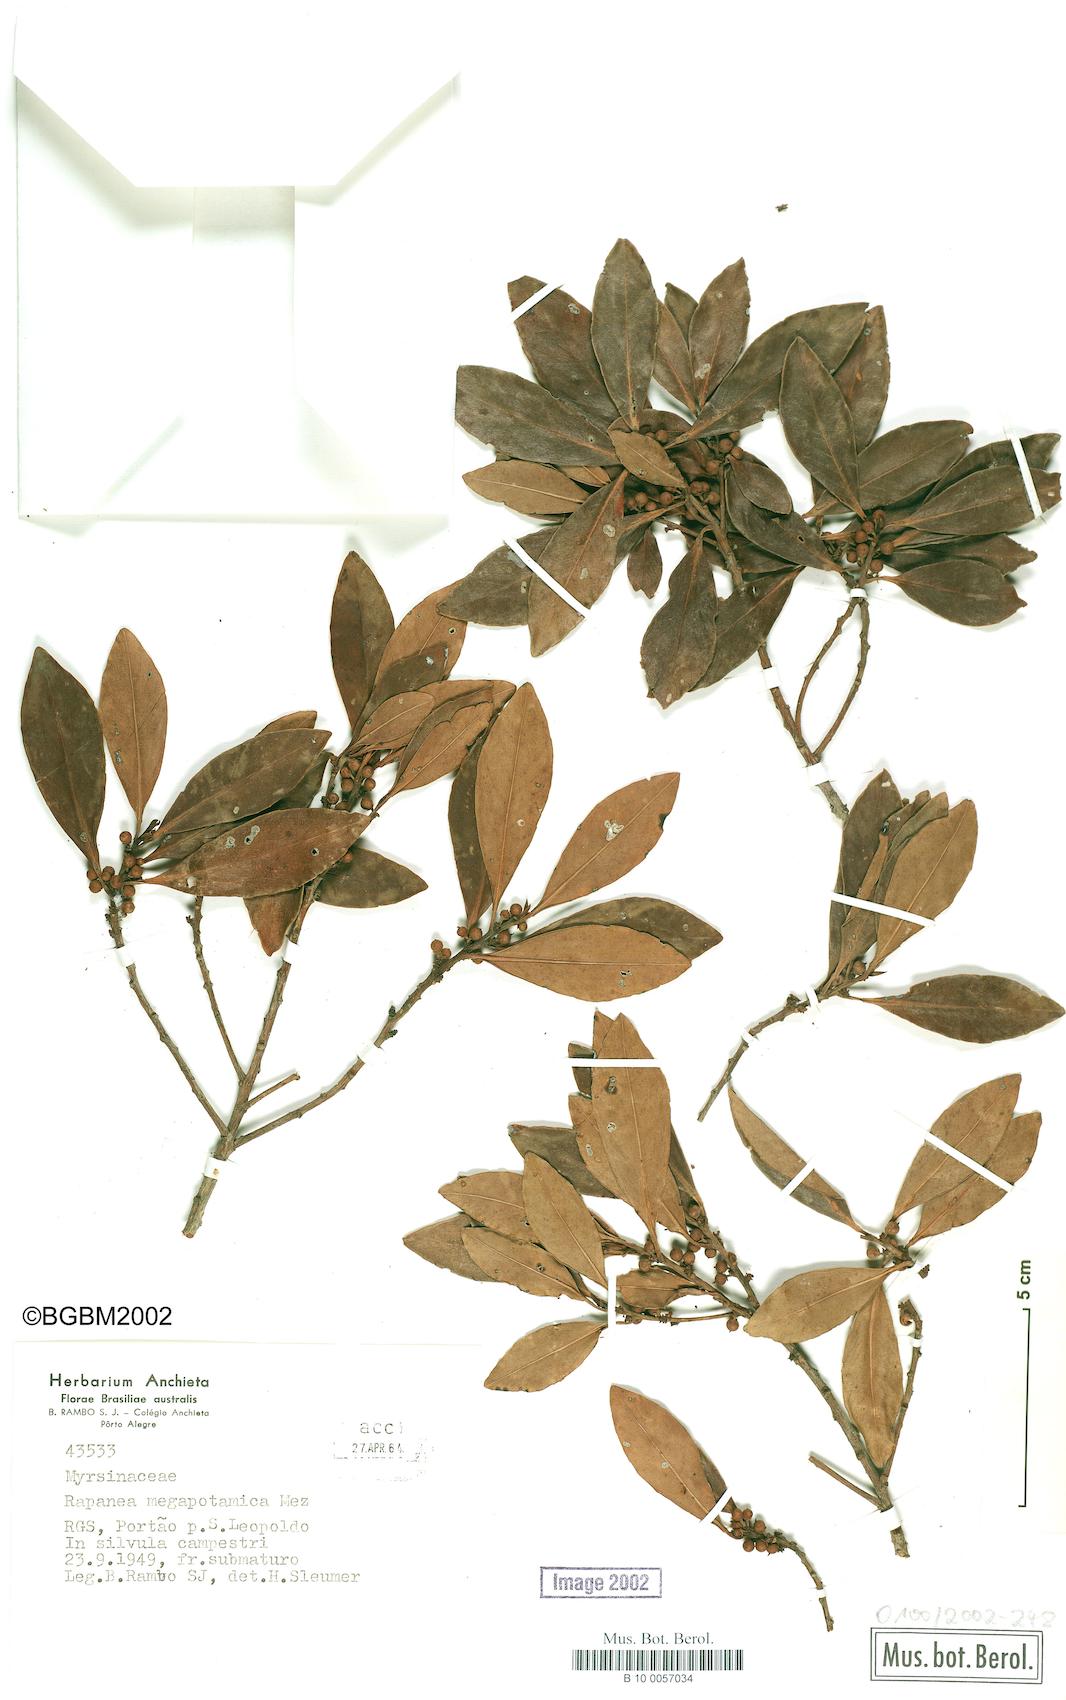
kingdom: Plantae
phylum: Tracheophyta
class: Magnoliopsida
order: Ericales
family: Primulaceae
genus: Myrsine
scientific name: Myrsine lorentziana
